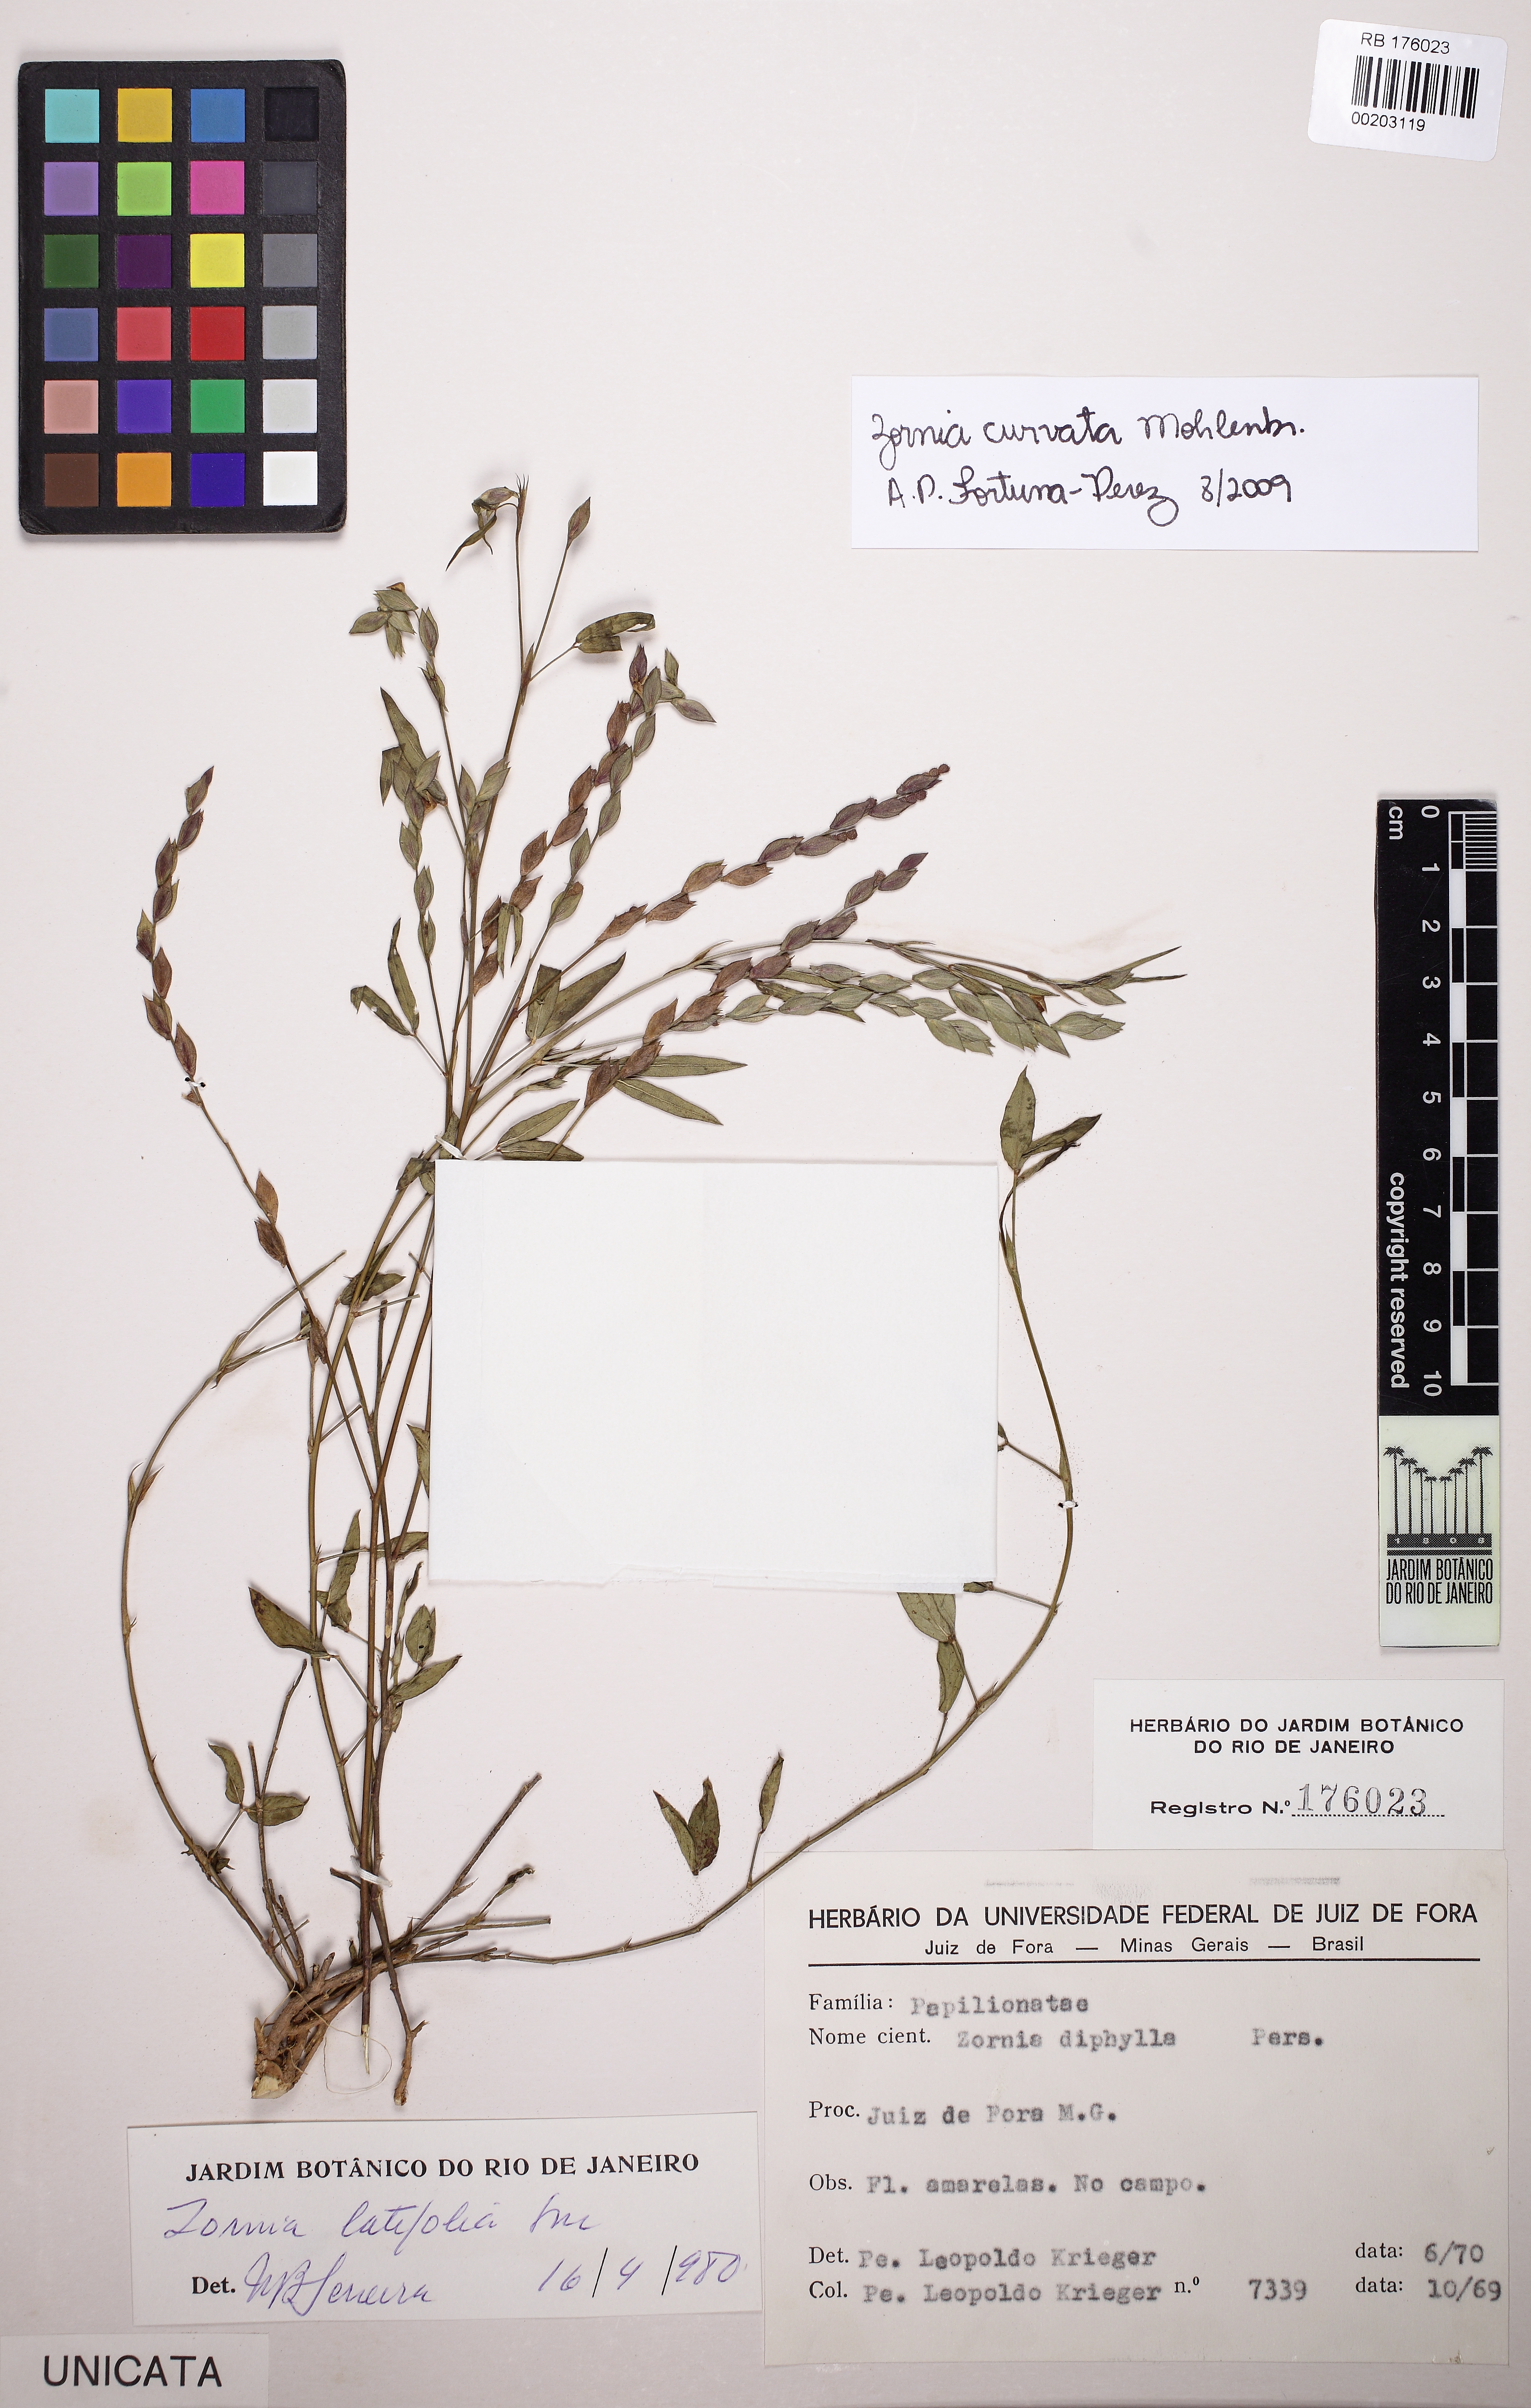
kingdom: Plantae
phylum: Tracheophyta
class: Magnoliopsida
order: Fabales
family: Fabaceae
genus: Zornia
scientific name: Zornia curvata
